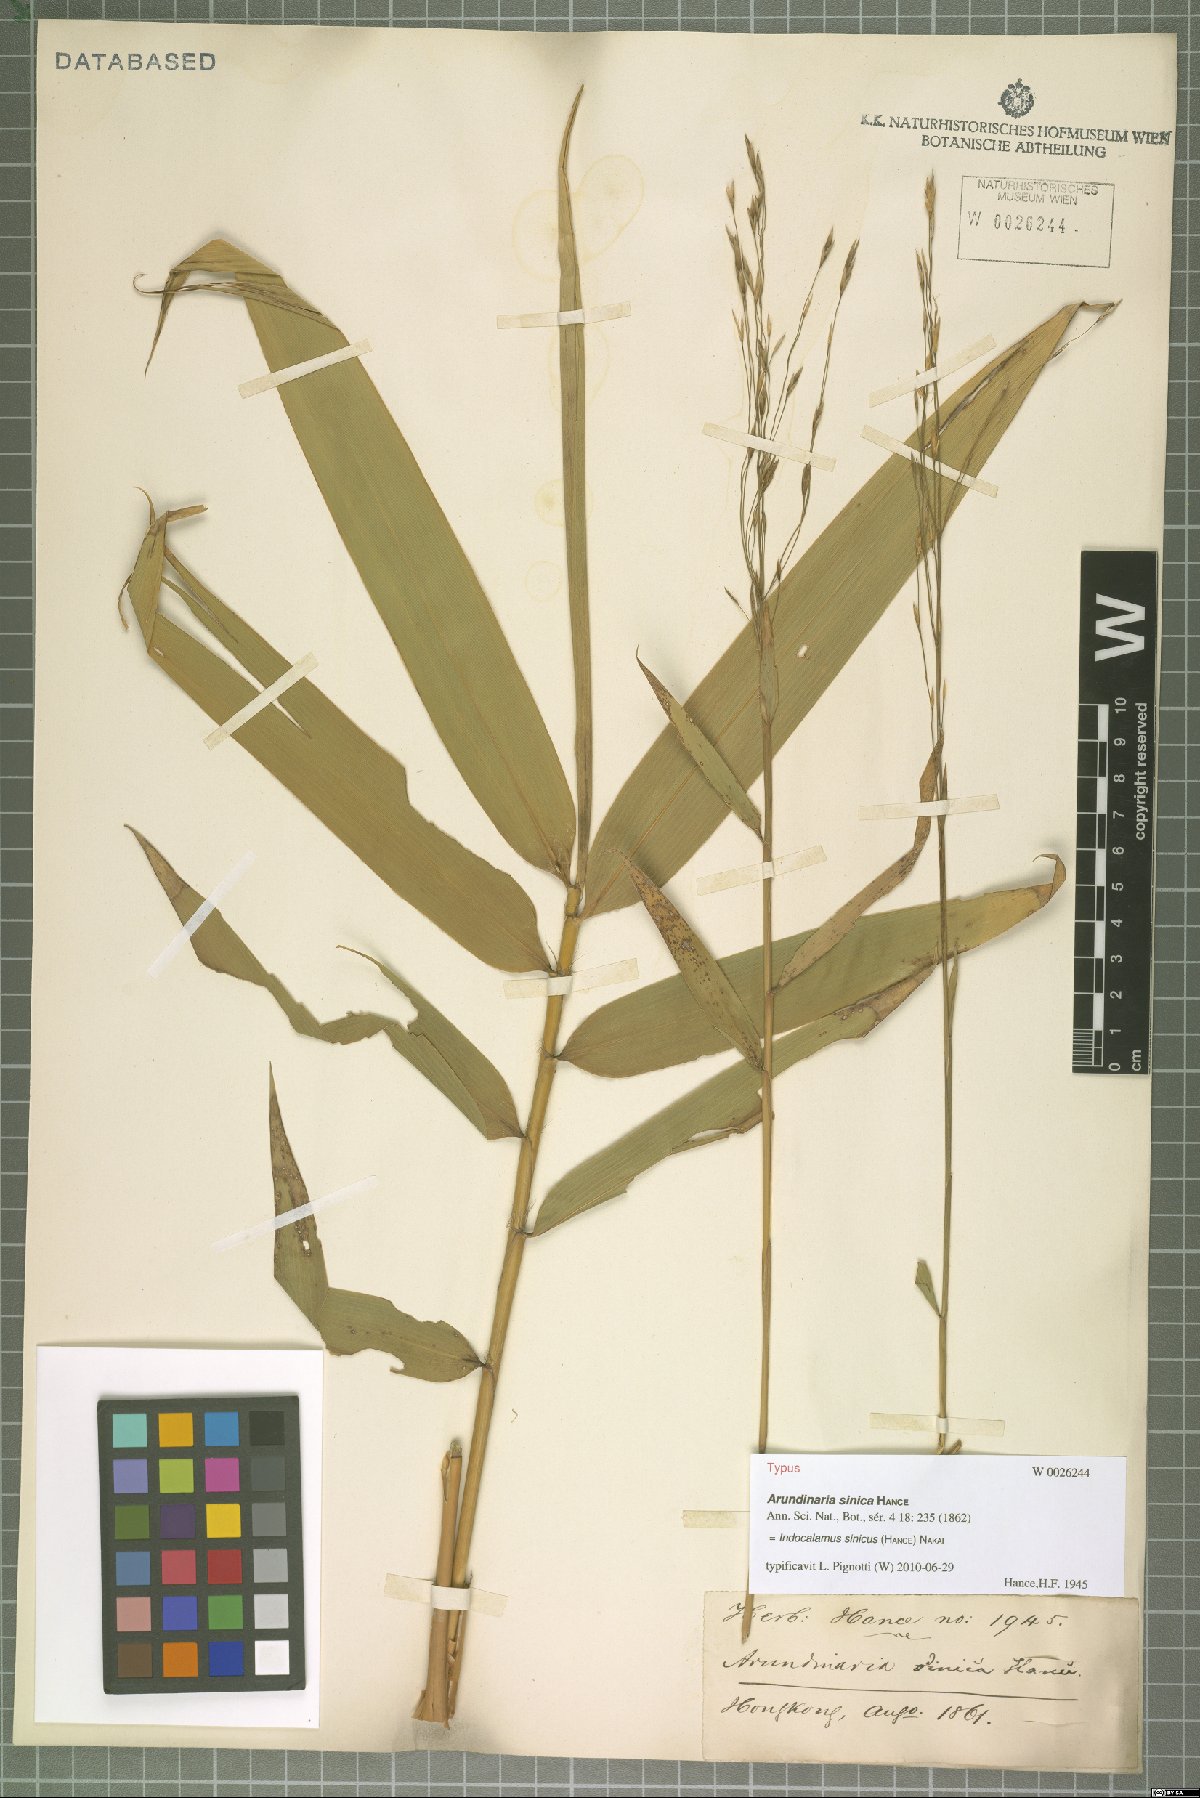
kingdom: Plantae
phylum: Tracheophyta
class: Liliopsida
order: Poales
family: Poaceae
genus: Indocalamus
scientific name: Indocalamus sinicus
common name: Chinese cane
